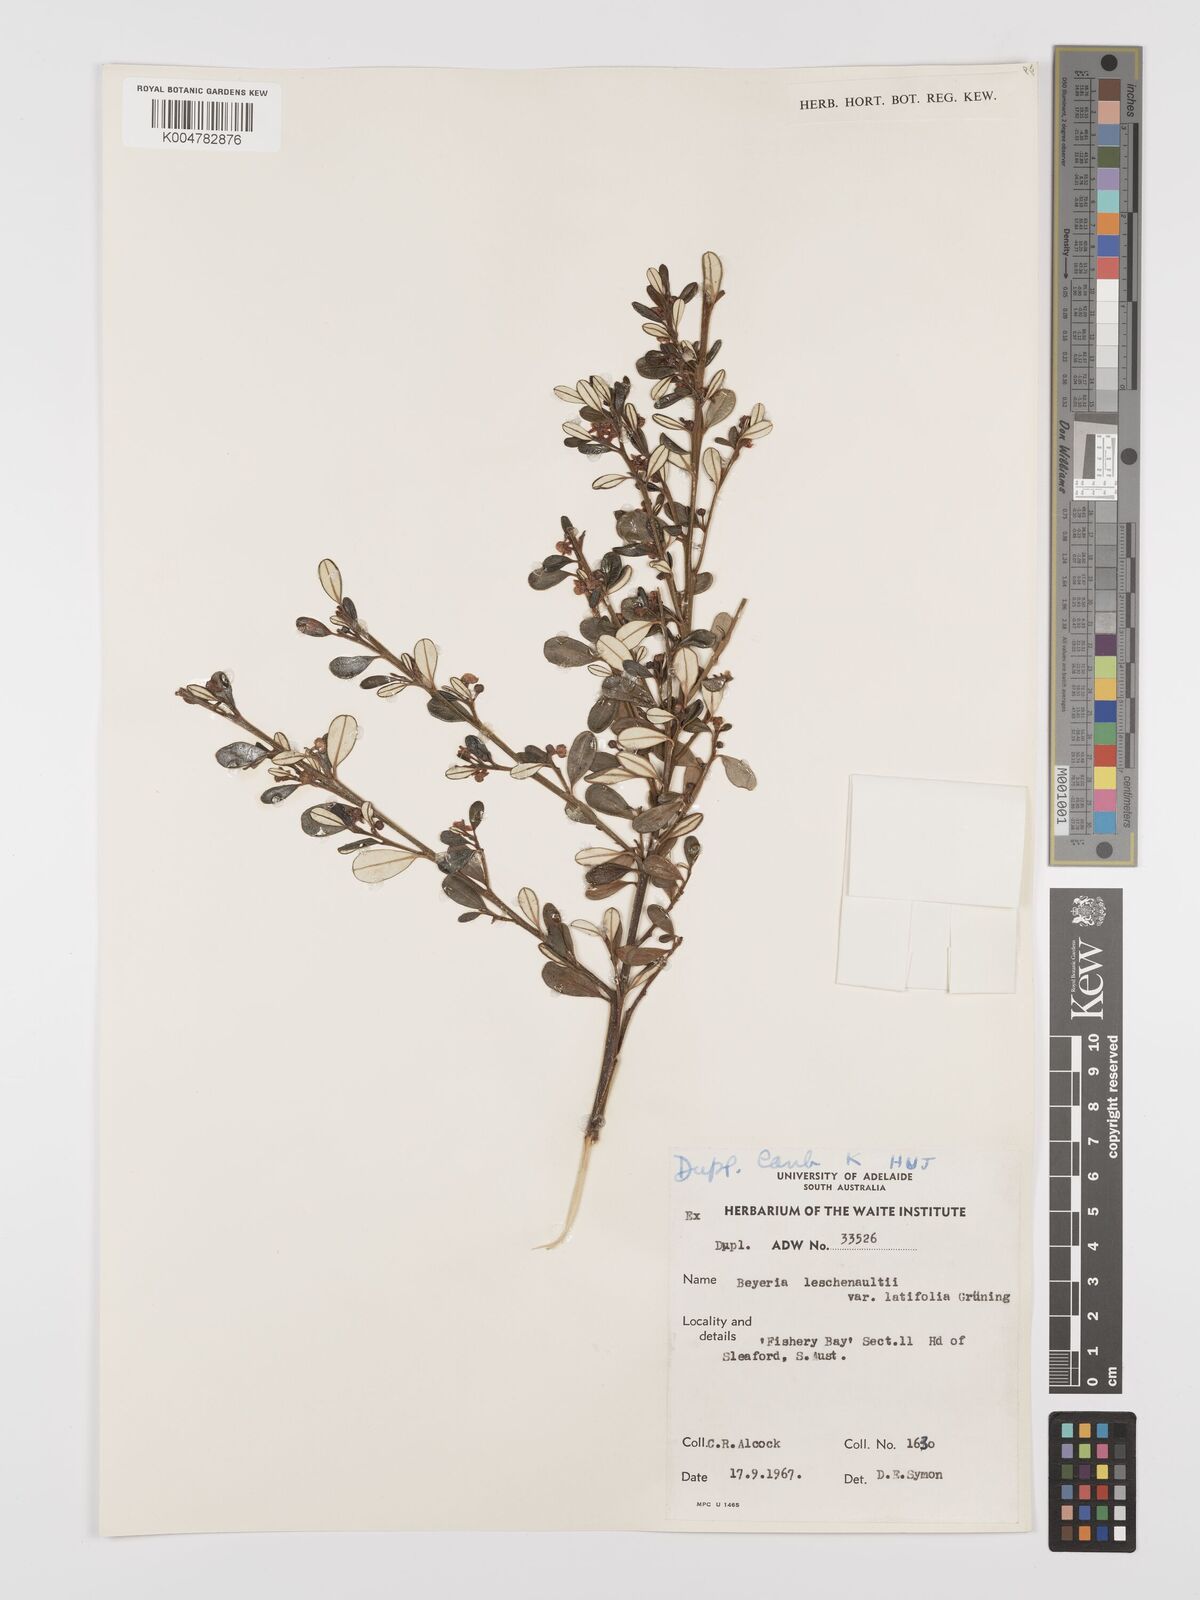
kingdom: Plantae
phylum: Tracheophyta
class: Magnoliopsida
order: Malpighiales
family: Euphorbiaceae
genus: Beyeria
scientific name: Beyeria lechenaultii
